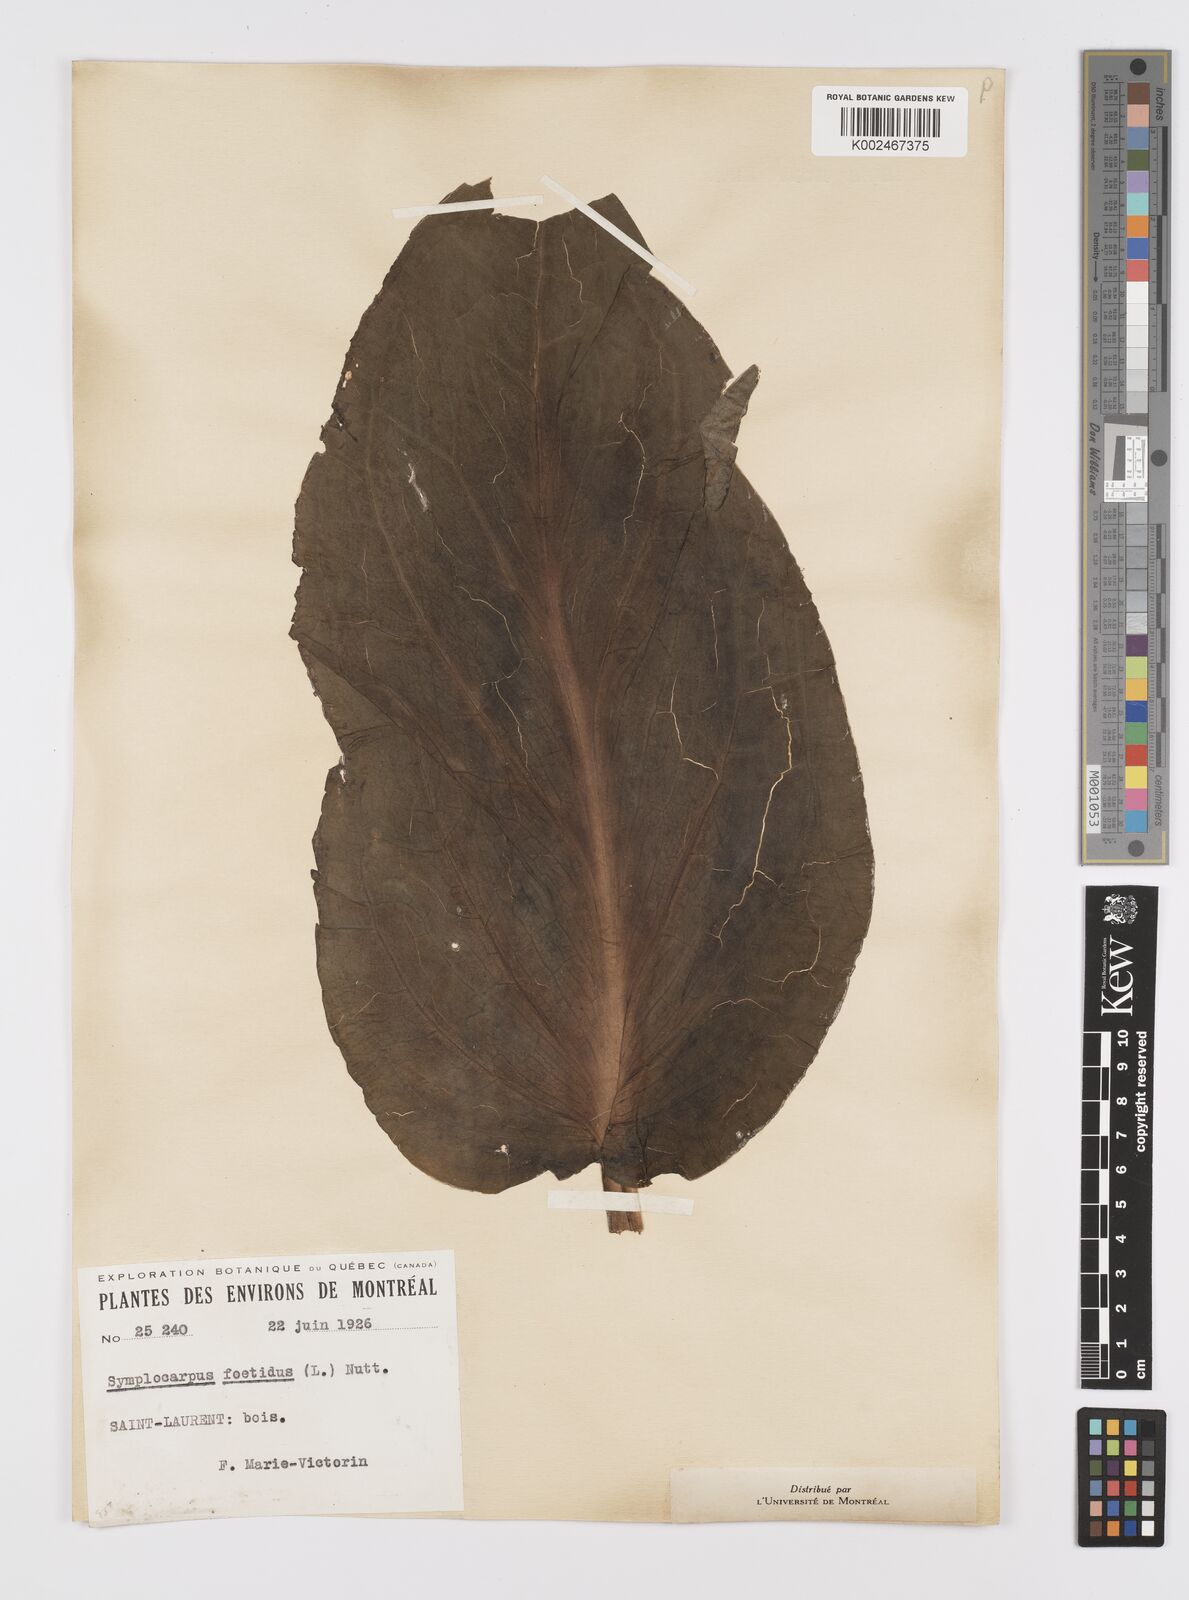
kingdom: Plantae
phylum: Tracheophyta
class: Liliopsida
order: Alismatales
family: Araceae
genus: Symplocarpus
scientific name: Symplocarpus foetidus
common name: Eastern skunk cabbage
